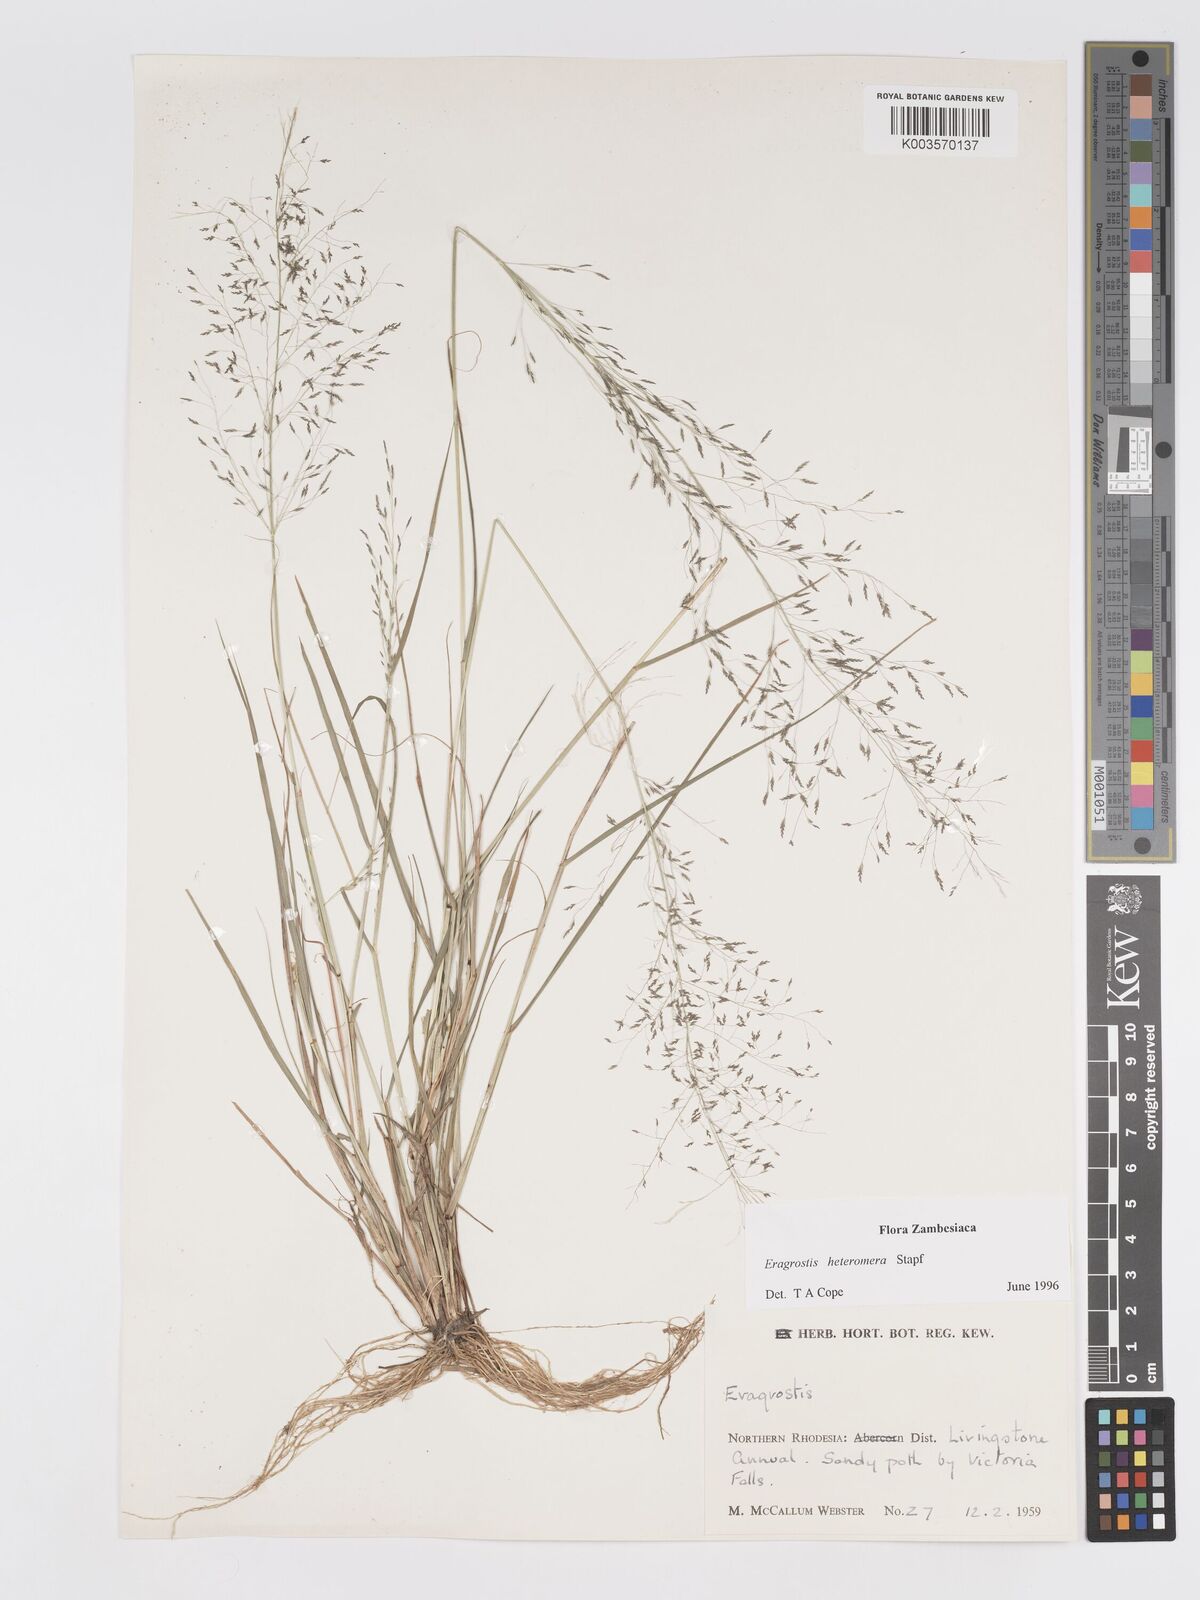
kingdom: Plantae
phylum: Tracheophyta
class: Liliopsida
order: Poales
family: Poaceae
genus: Eragrostis
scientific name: Eragrostis heteromera
